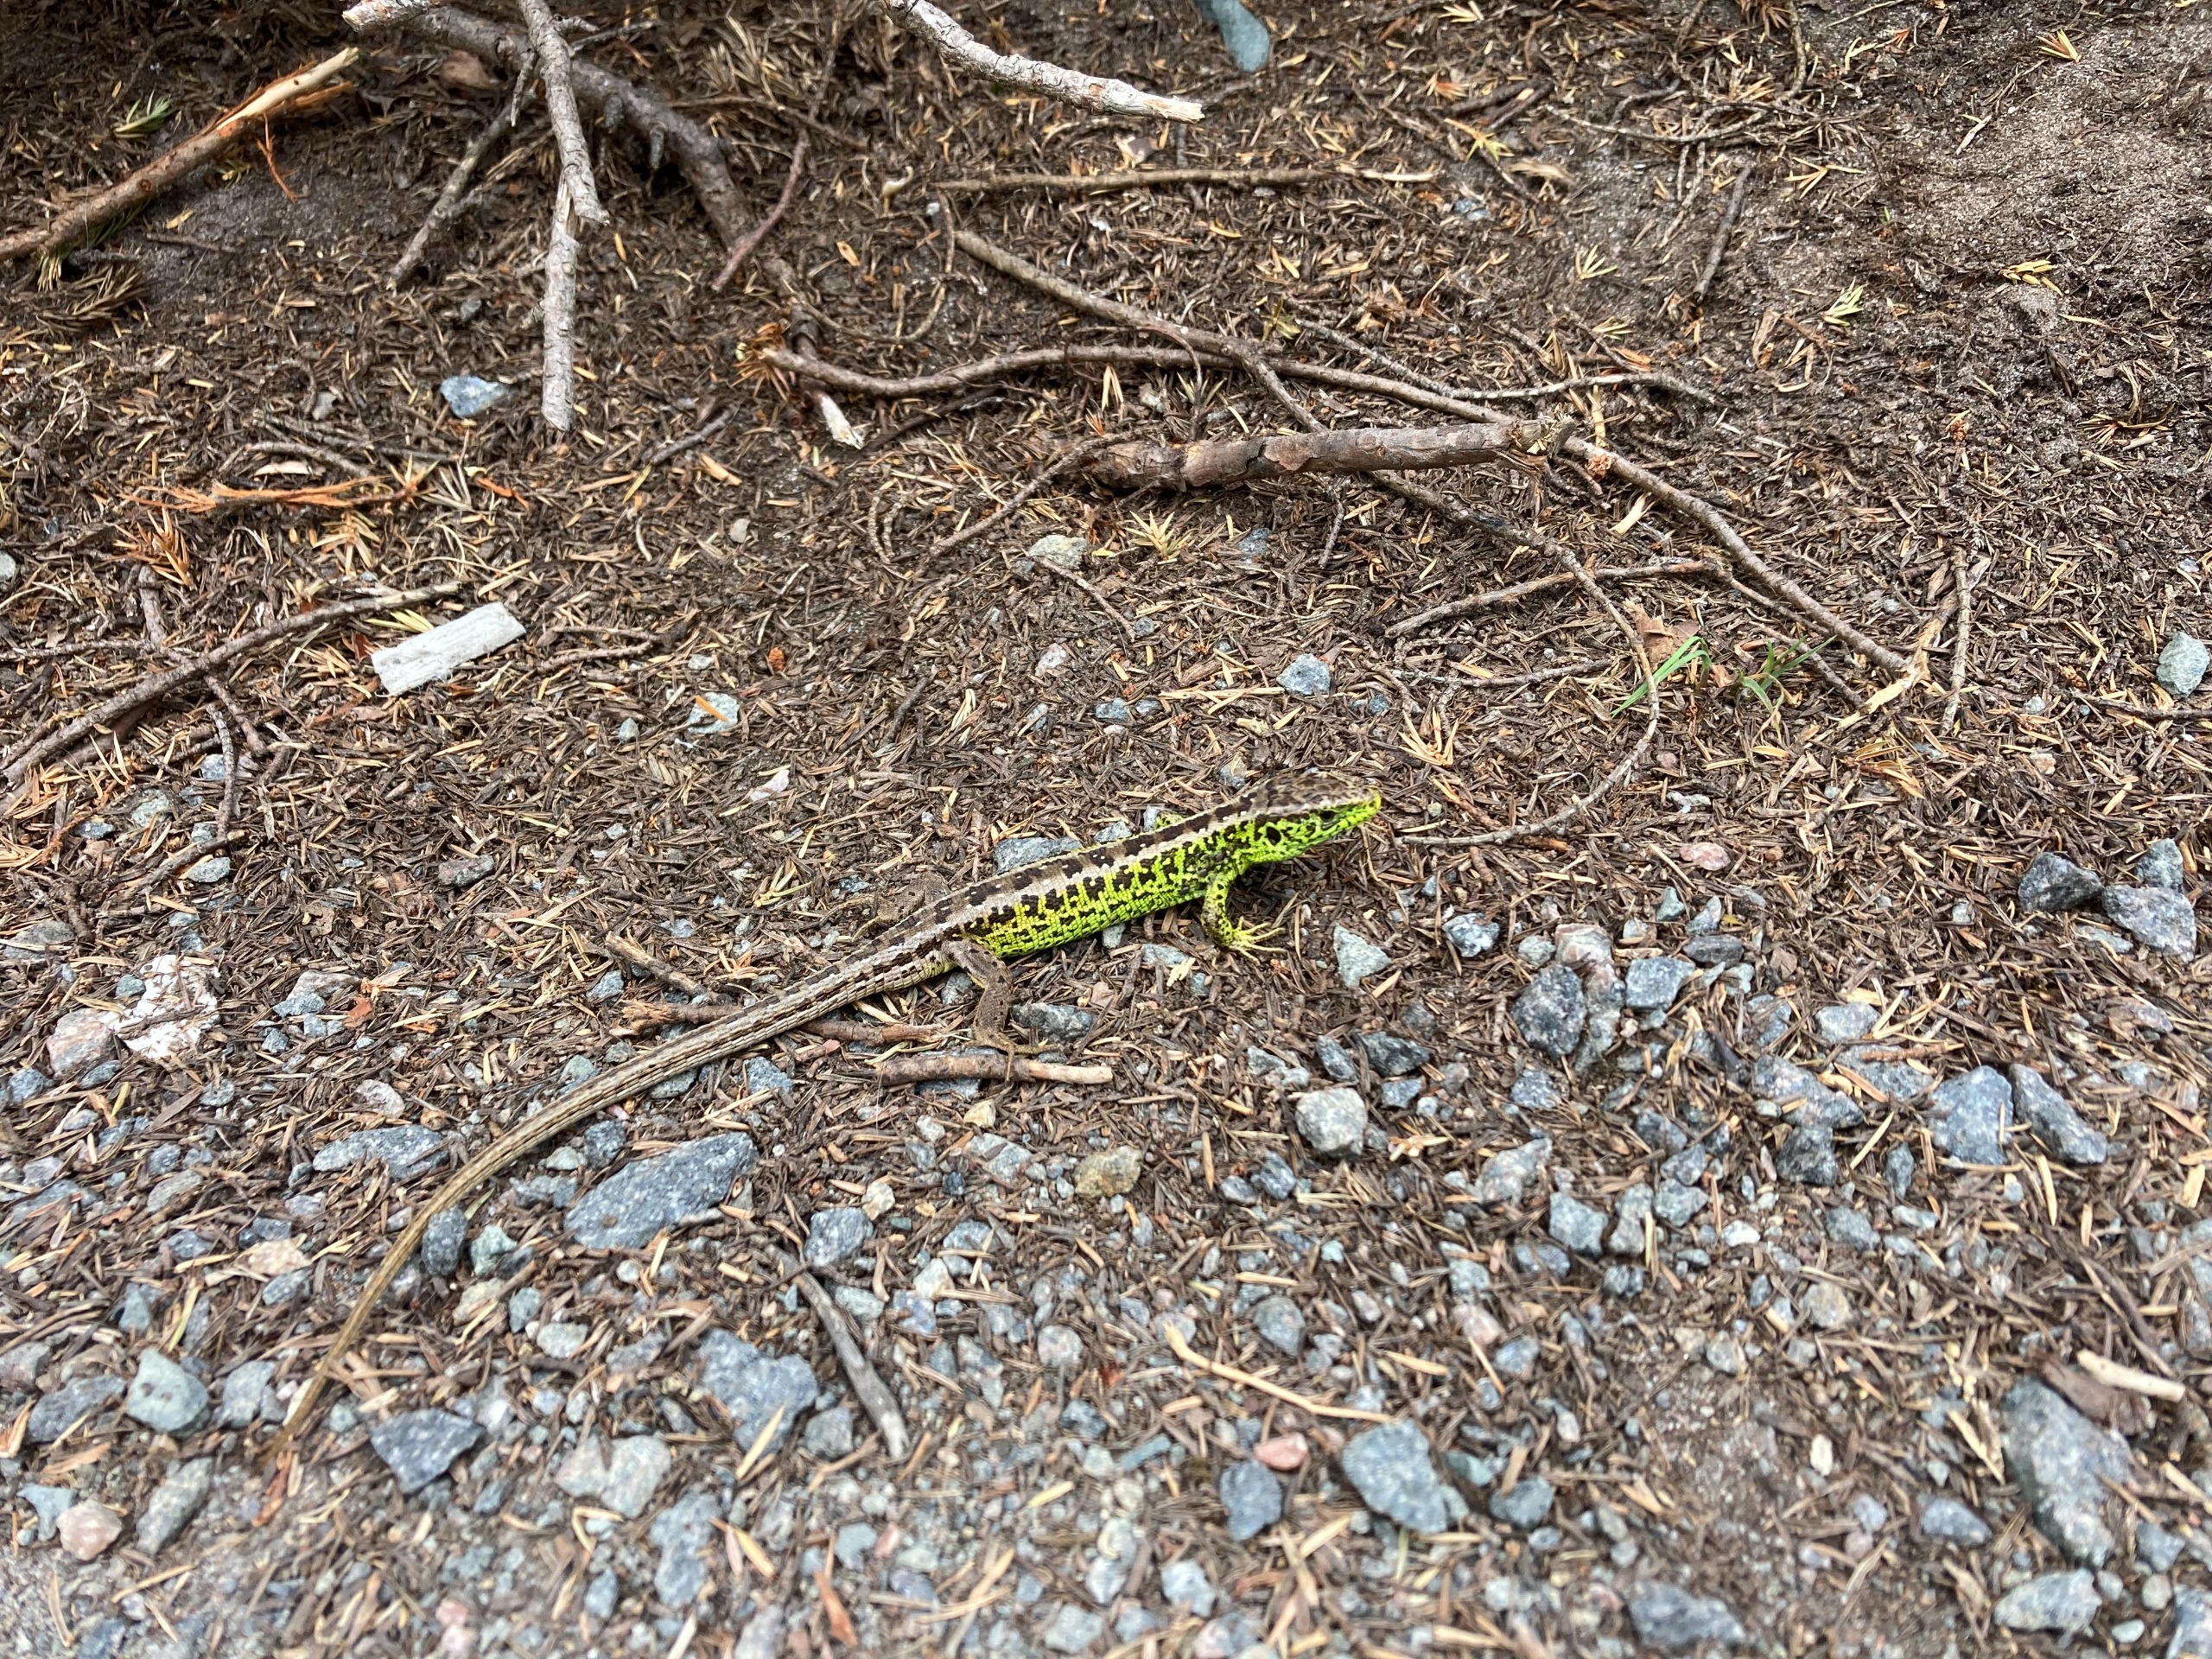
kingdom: Animalia
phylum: Chordata
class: Squamata
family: Lacertidae
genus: Lacerta
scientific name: Lacerta agilis
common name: Markfirben
